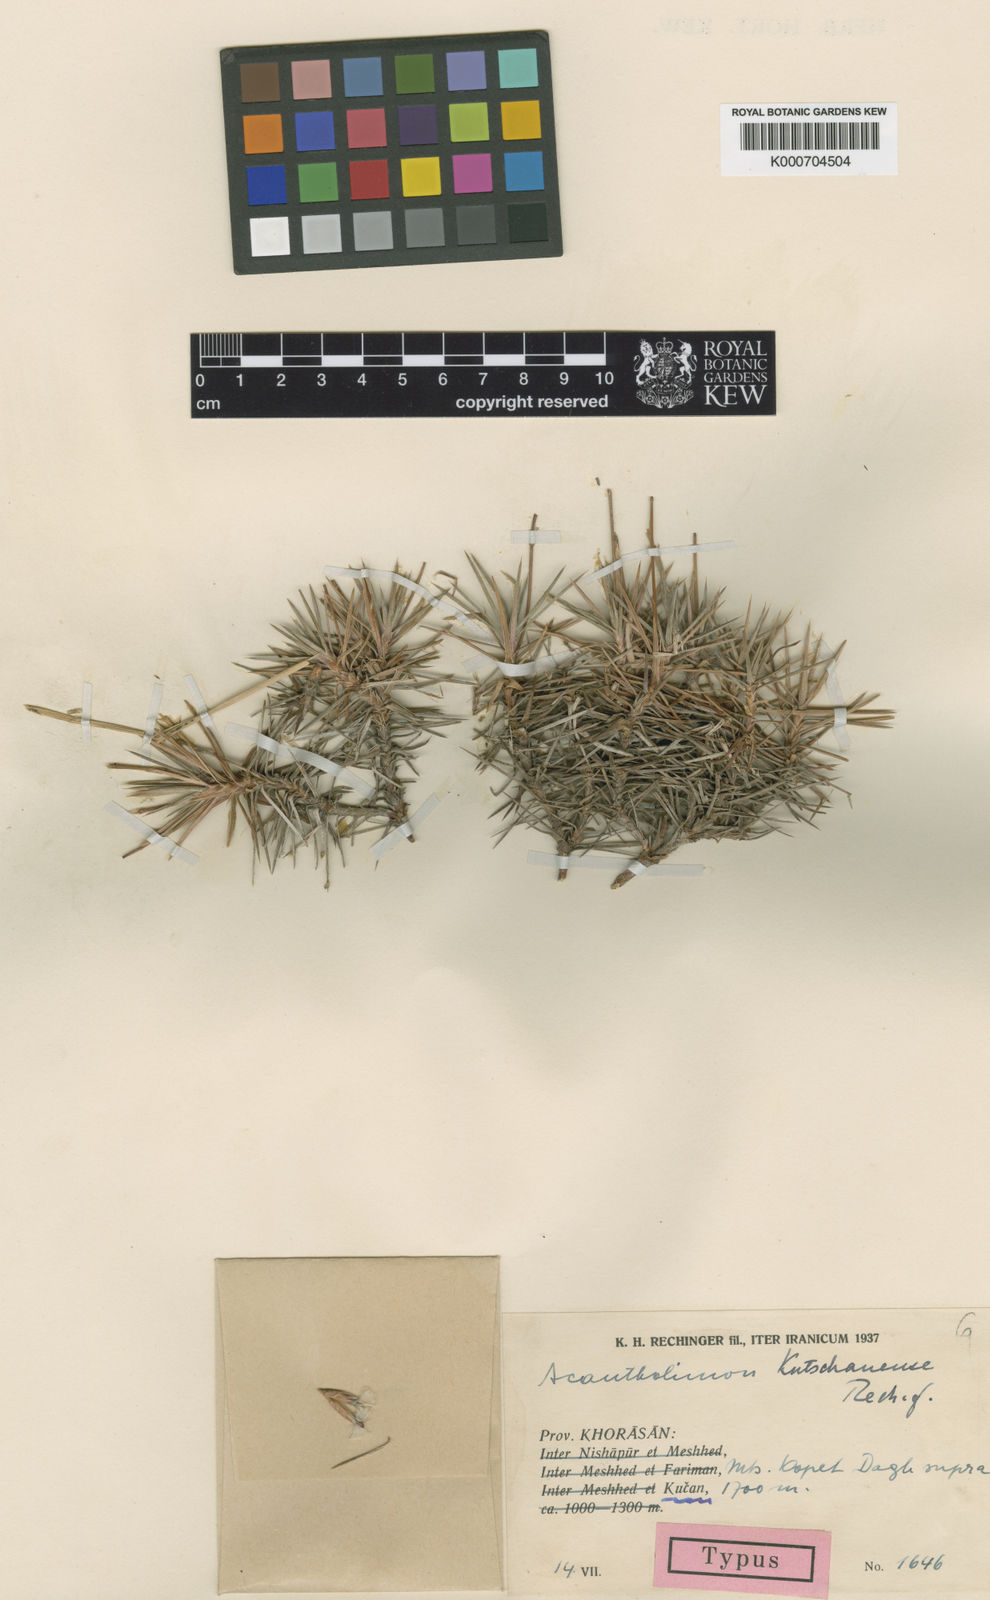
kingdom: Plantae
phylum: Tracheophyta
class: Magnoliopsida
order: Caryophyllales
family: Plumbaginaceae
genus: Acantholimon
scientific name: Acantholimon kutschanense
